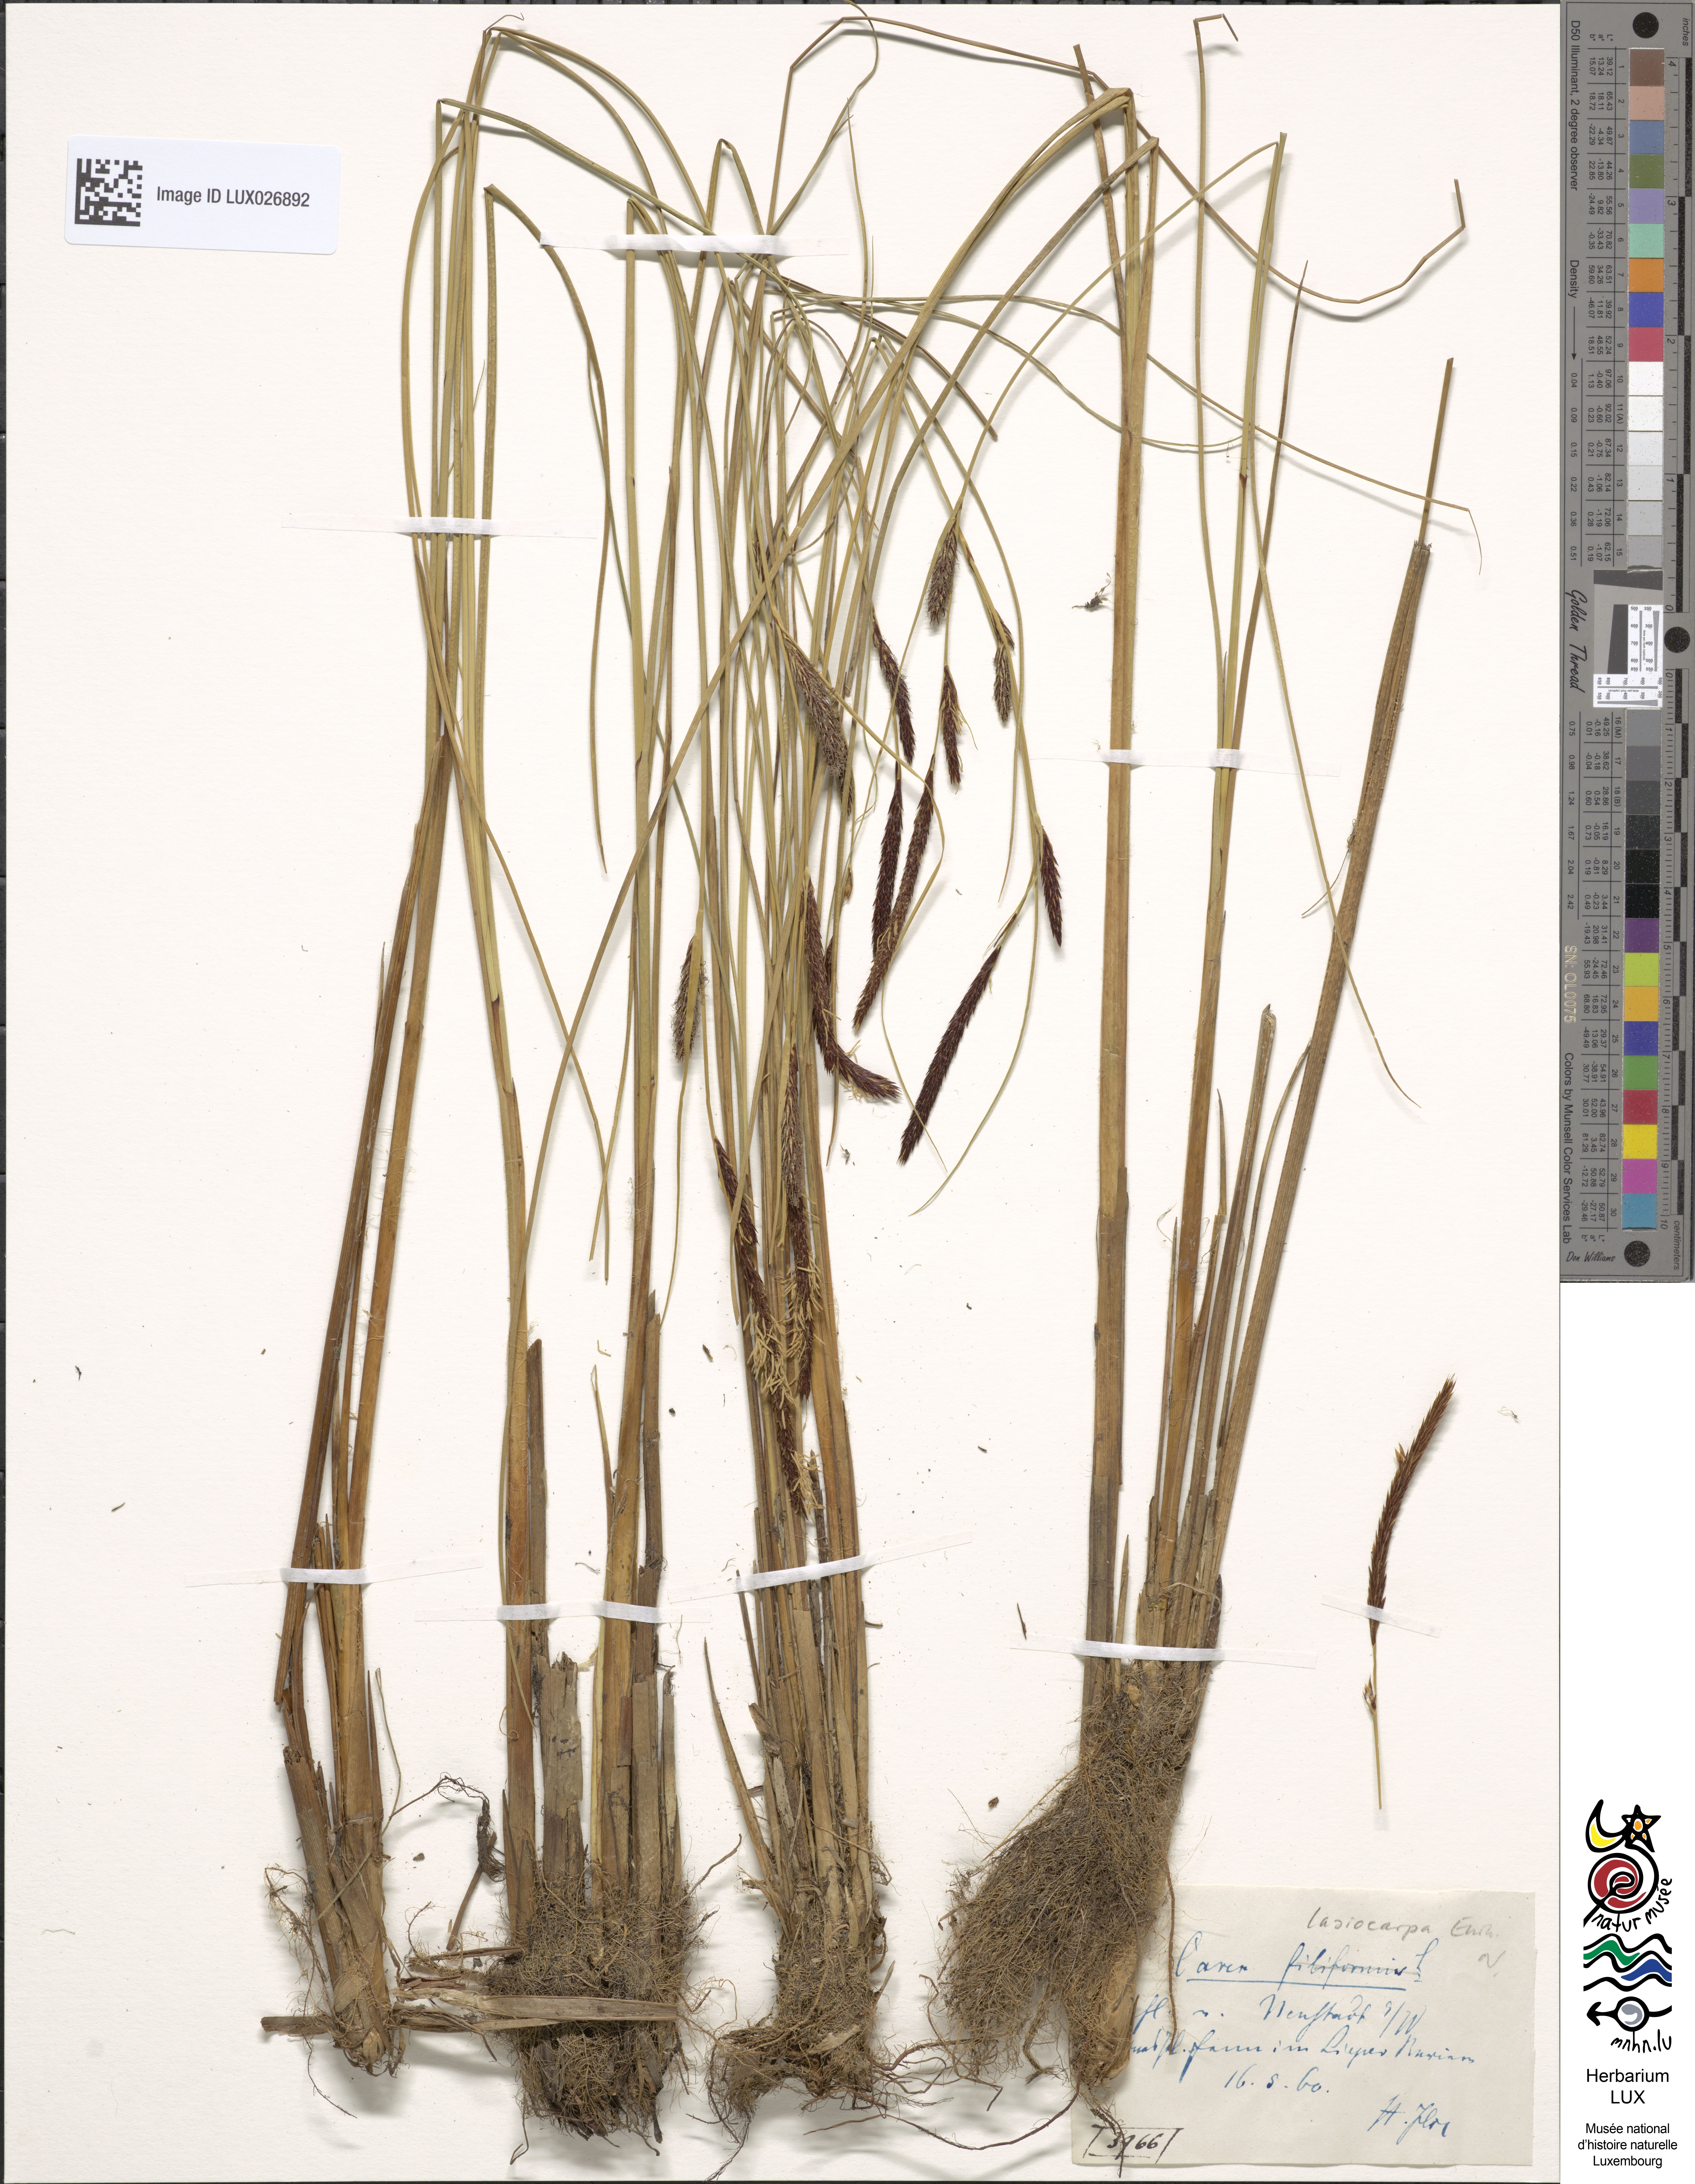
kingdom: Plantae
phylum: Tracheophyta
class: Liliopsida
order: Poales
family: Cyperaceae
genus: Carex
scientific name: Carex lasiocarpa
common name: Slender sedge
